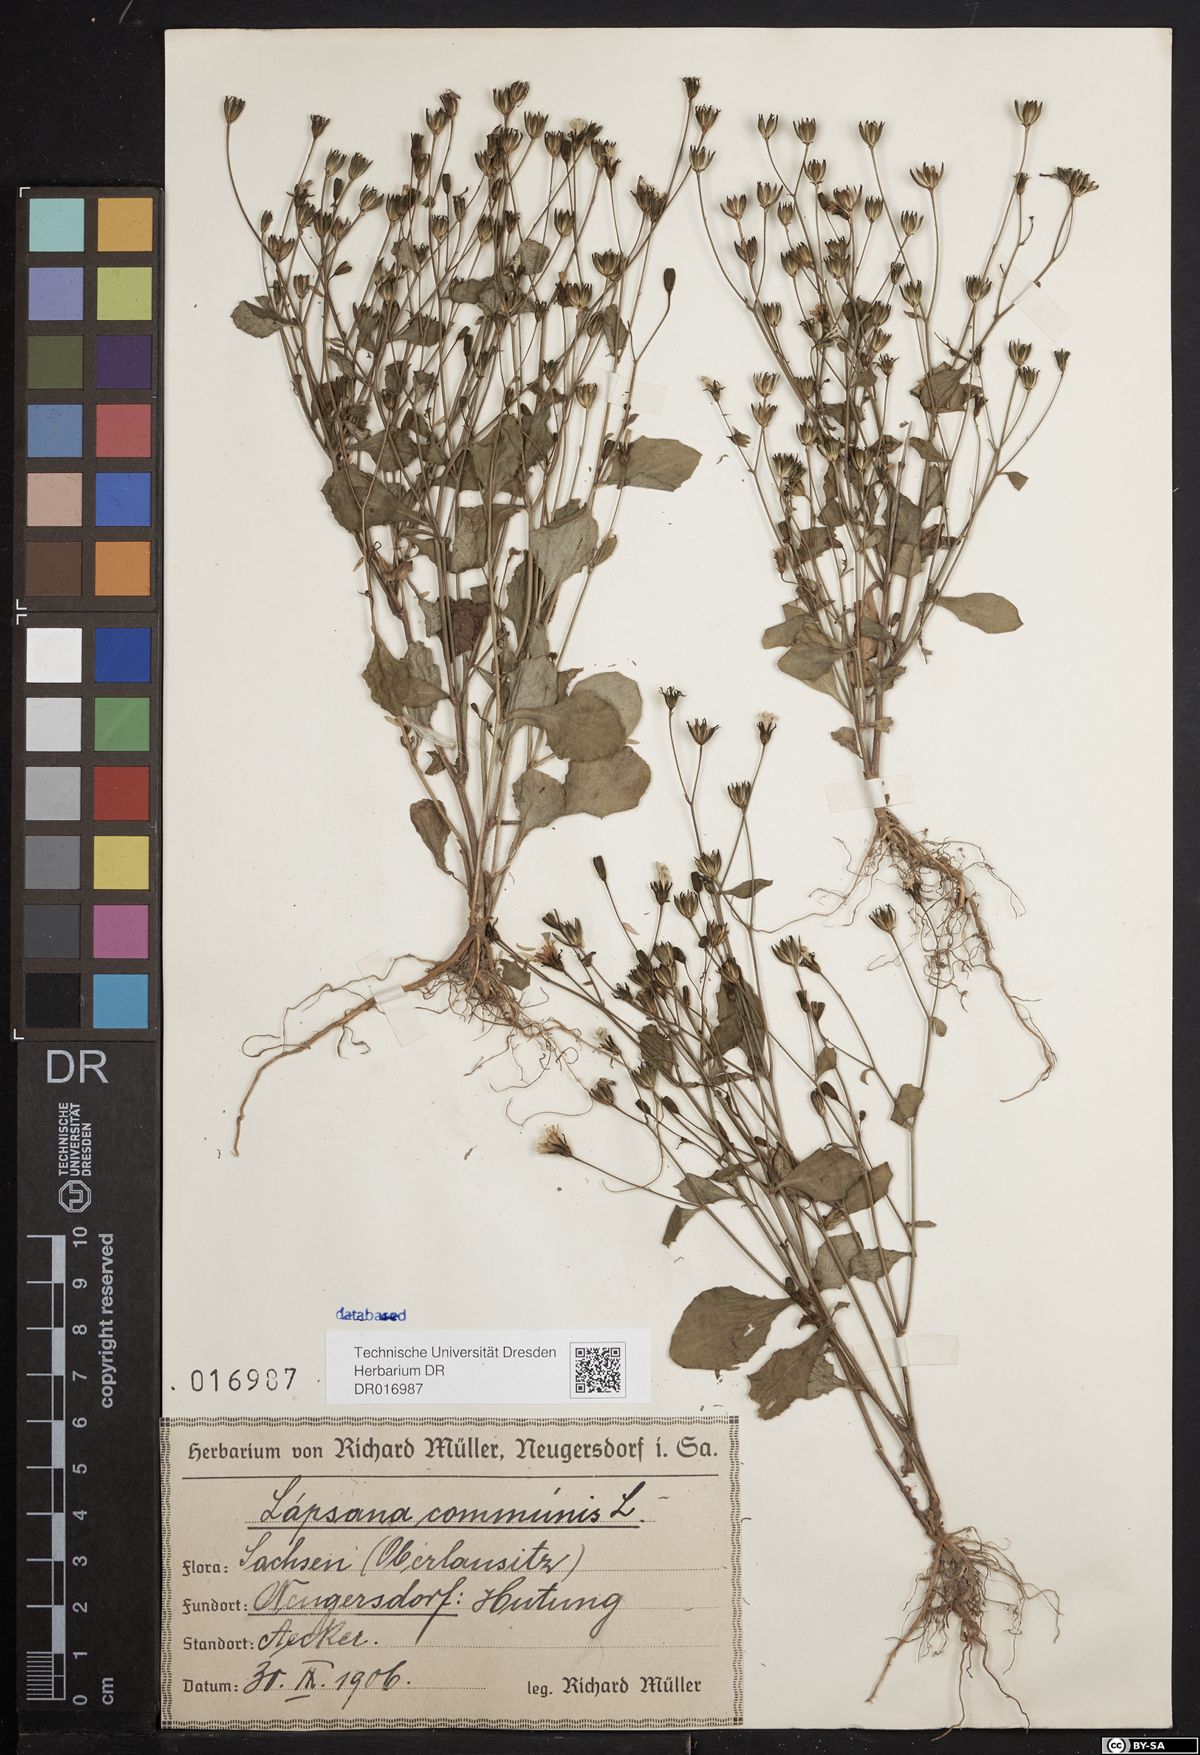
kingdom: Plantae
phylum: Tracheophyta
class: Magnoliopsida
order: Asterales
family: Asteraceae
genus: Lapsana
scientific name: Lapsana communis
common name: Nipplewort
